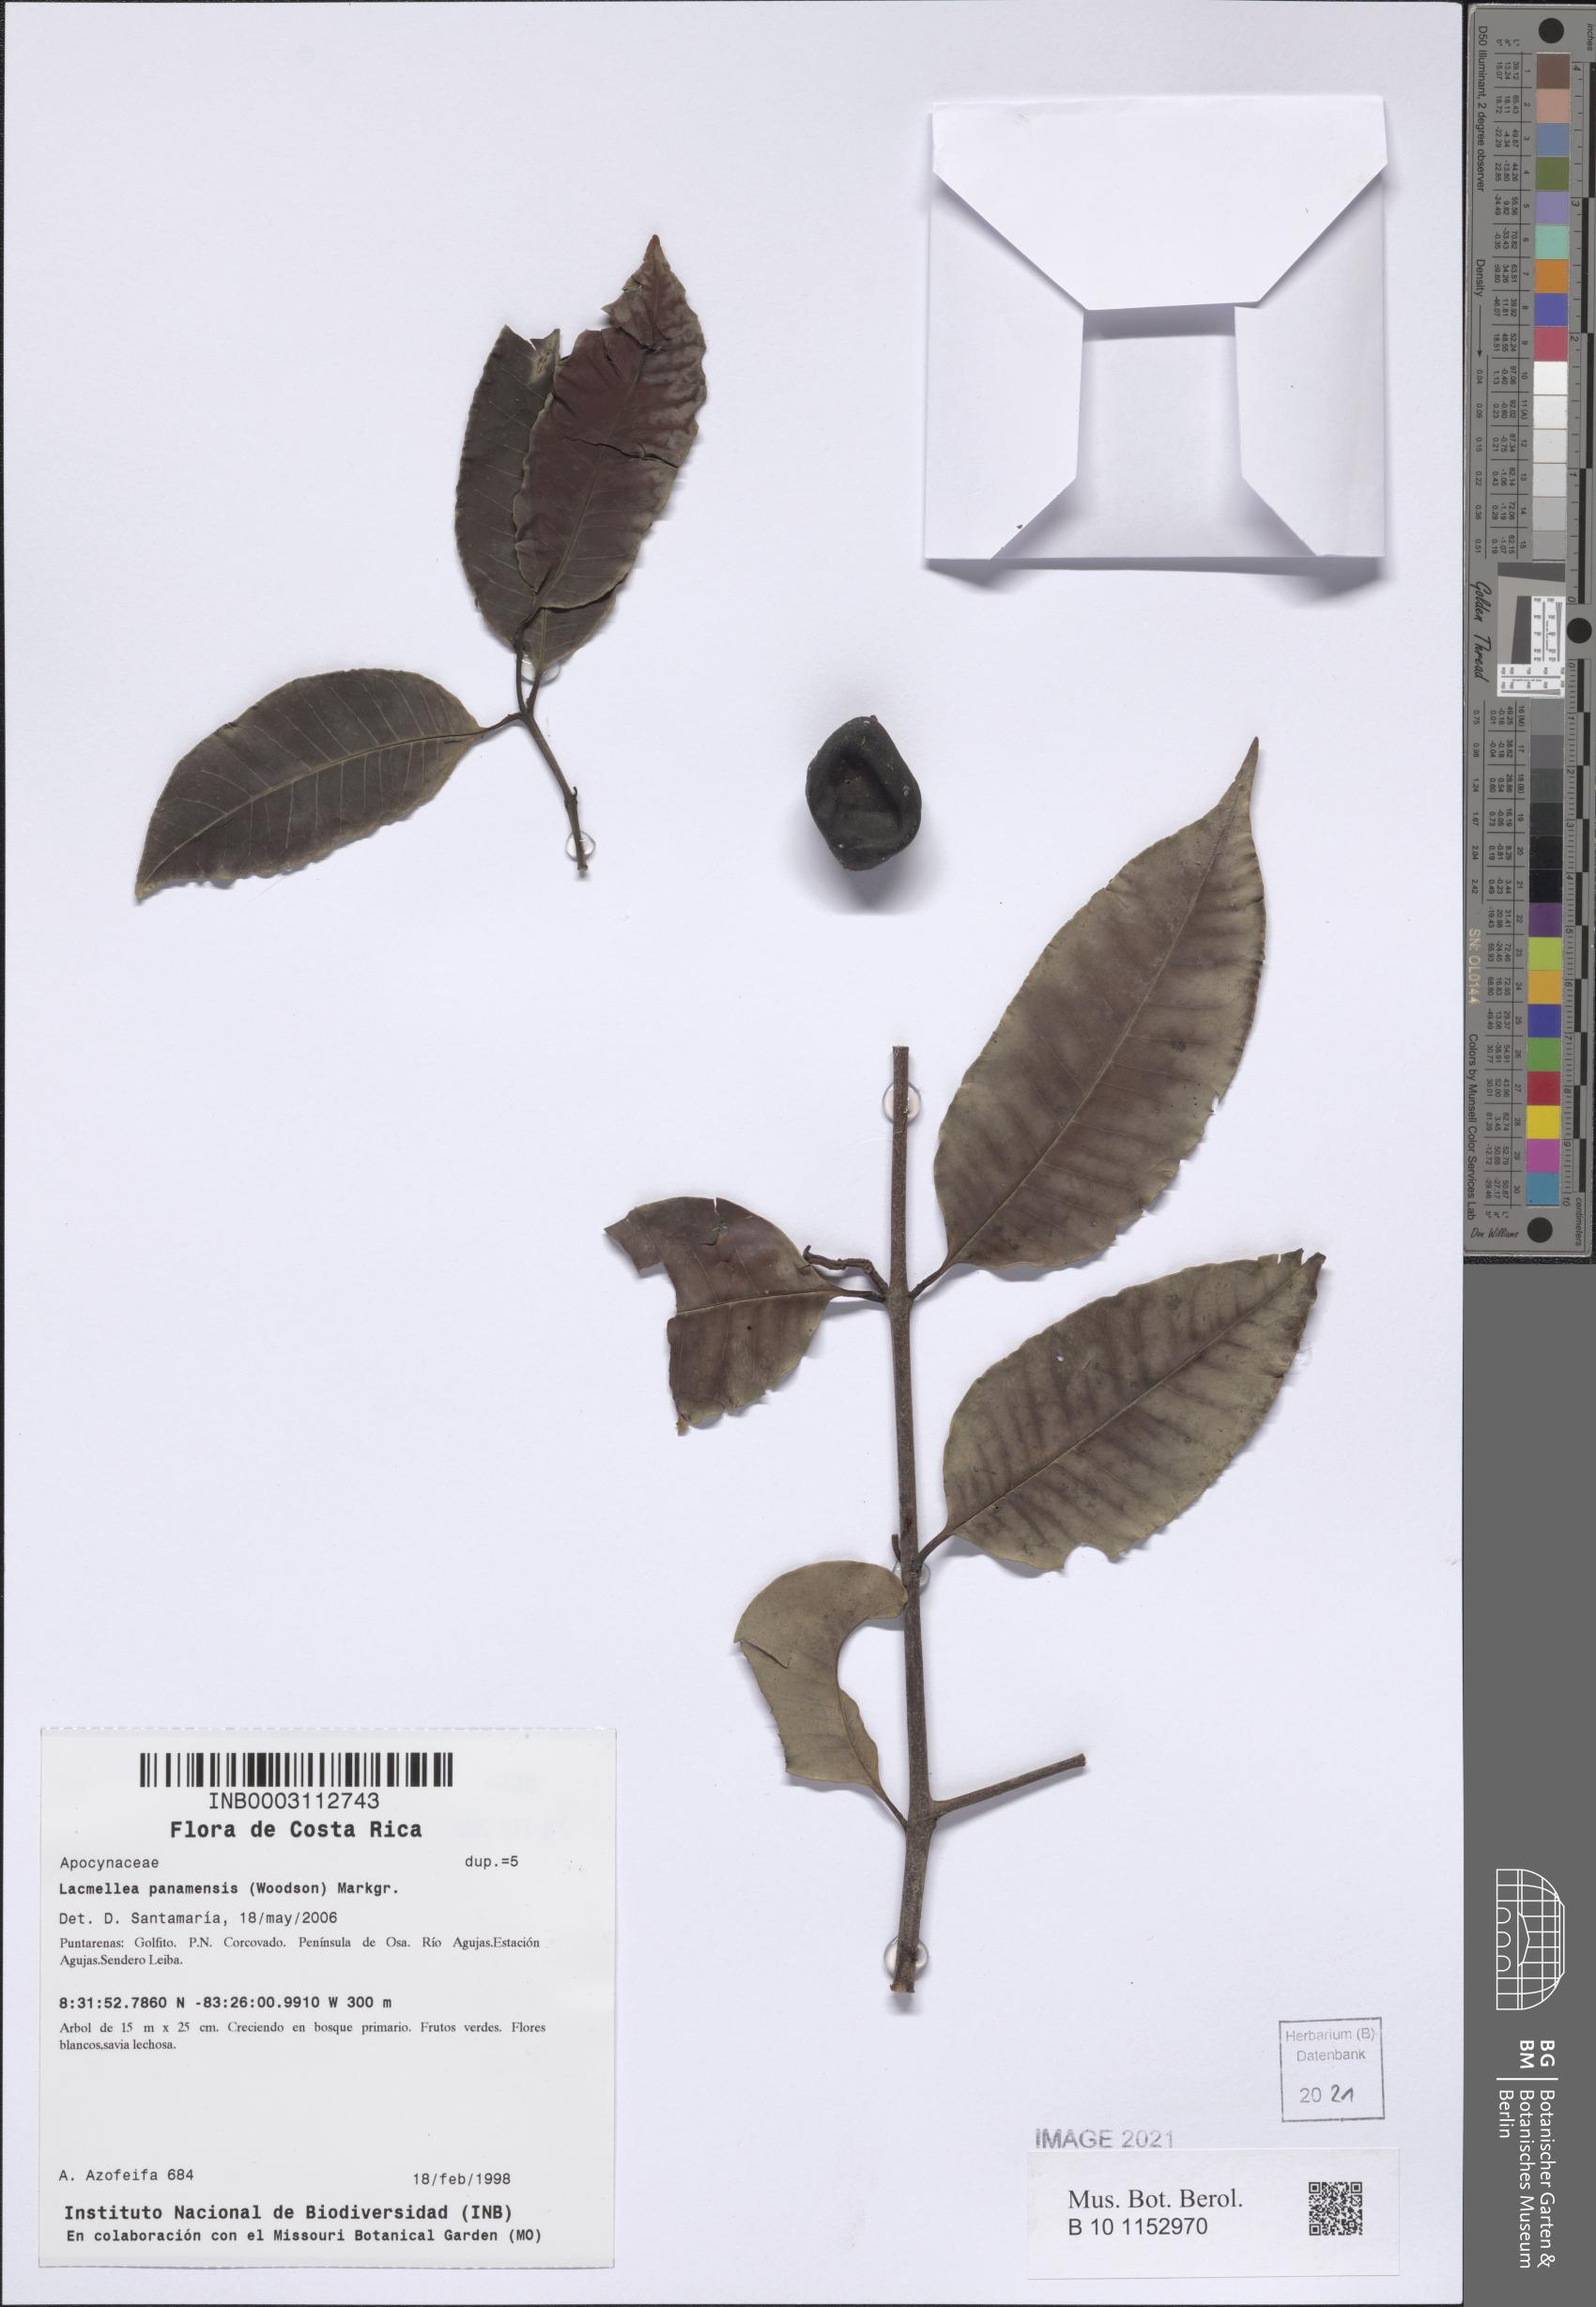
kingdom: Plantae
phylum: Tracheophyta
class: Magnoliopsida
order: Gentianales
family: Apocynaceae
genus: Lacmellea
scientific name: Lacmellea panamensis
